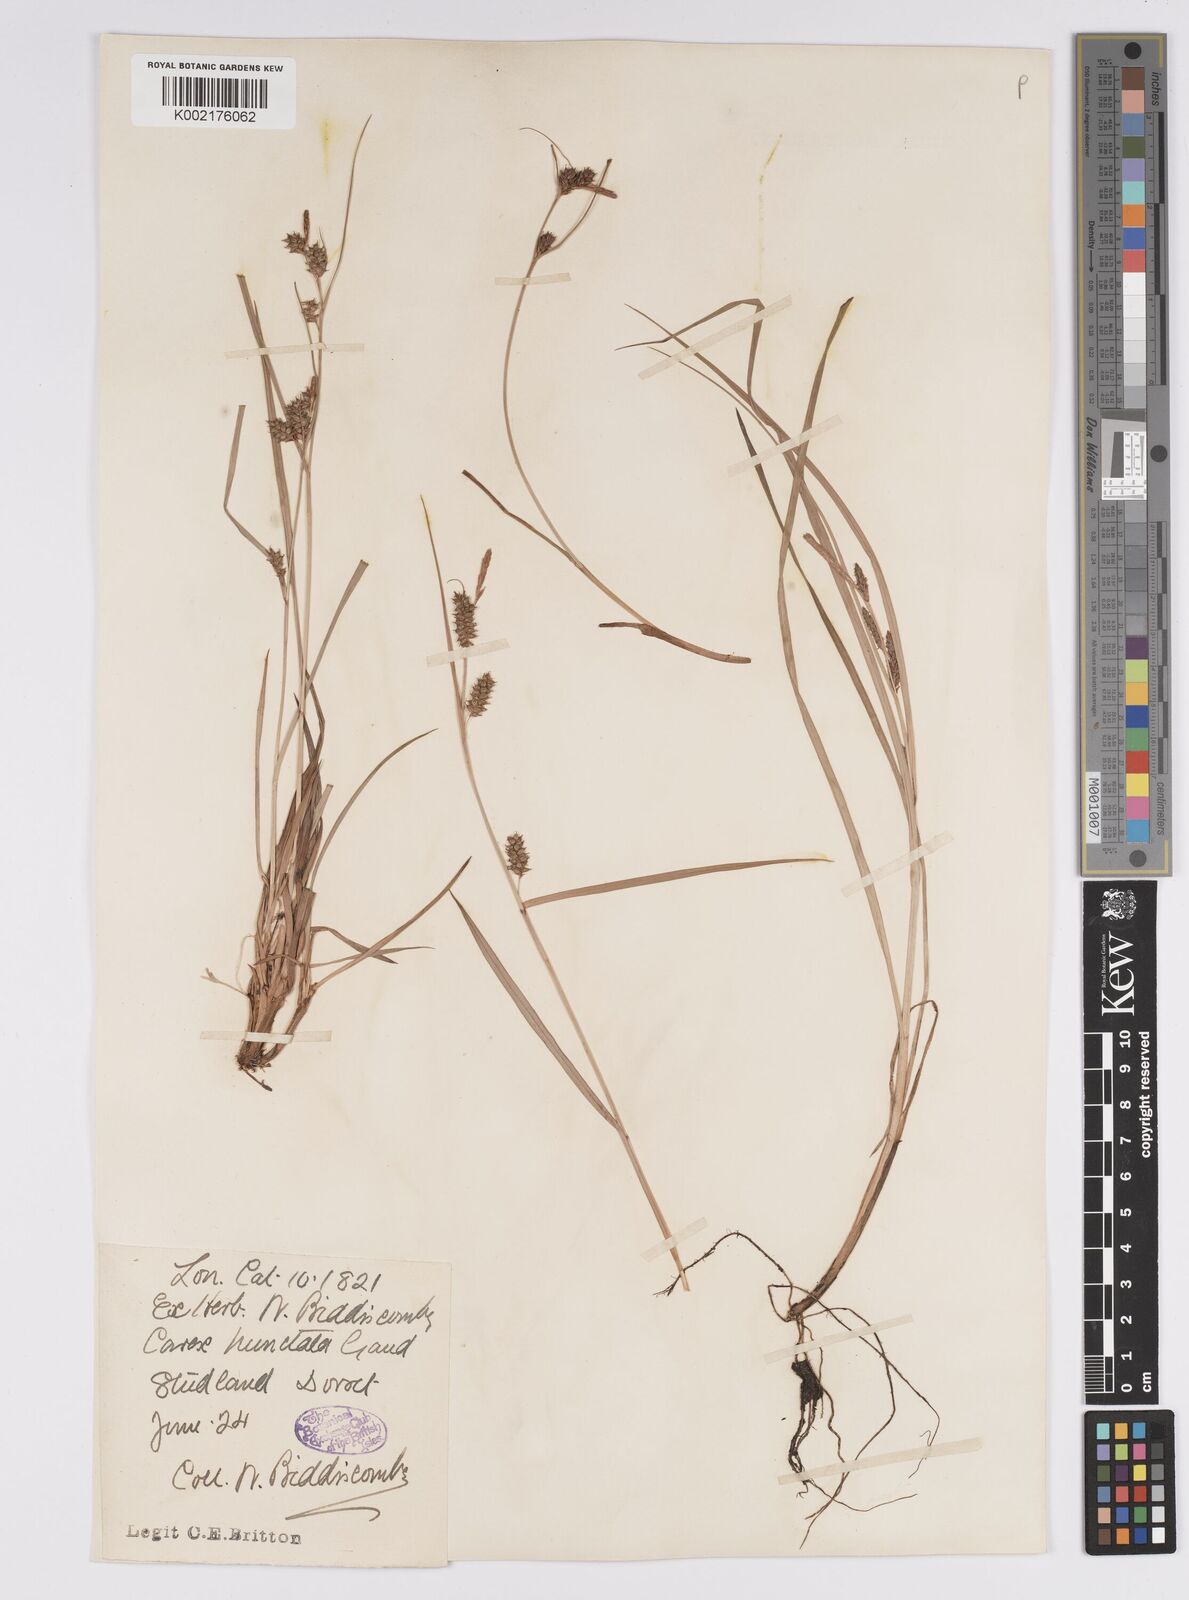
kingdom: Plantae
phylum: Tracheophyta
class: Liliopsida
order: Poales
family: Cyperaceae
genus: Carex
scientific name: Carex punctata
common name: Dotted sedge
